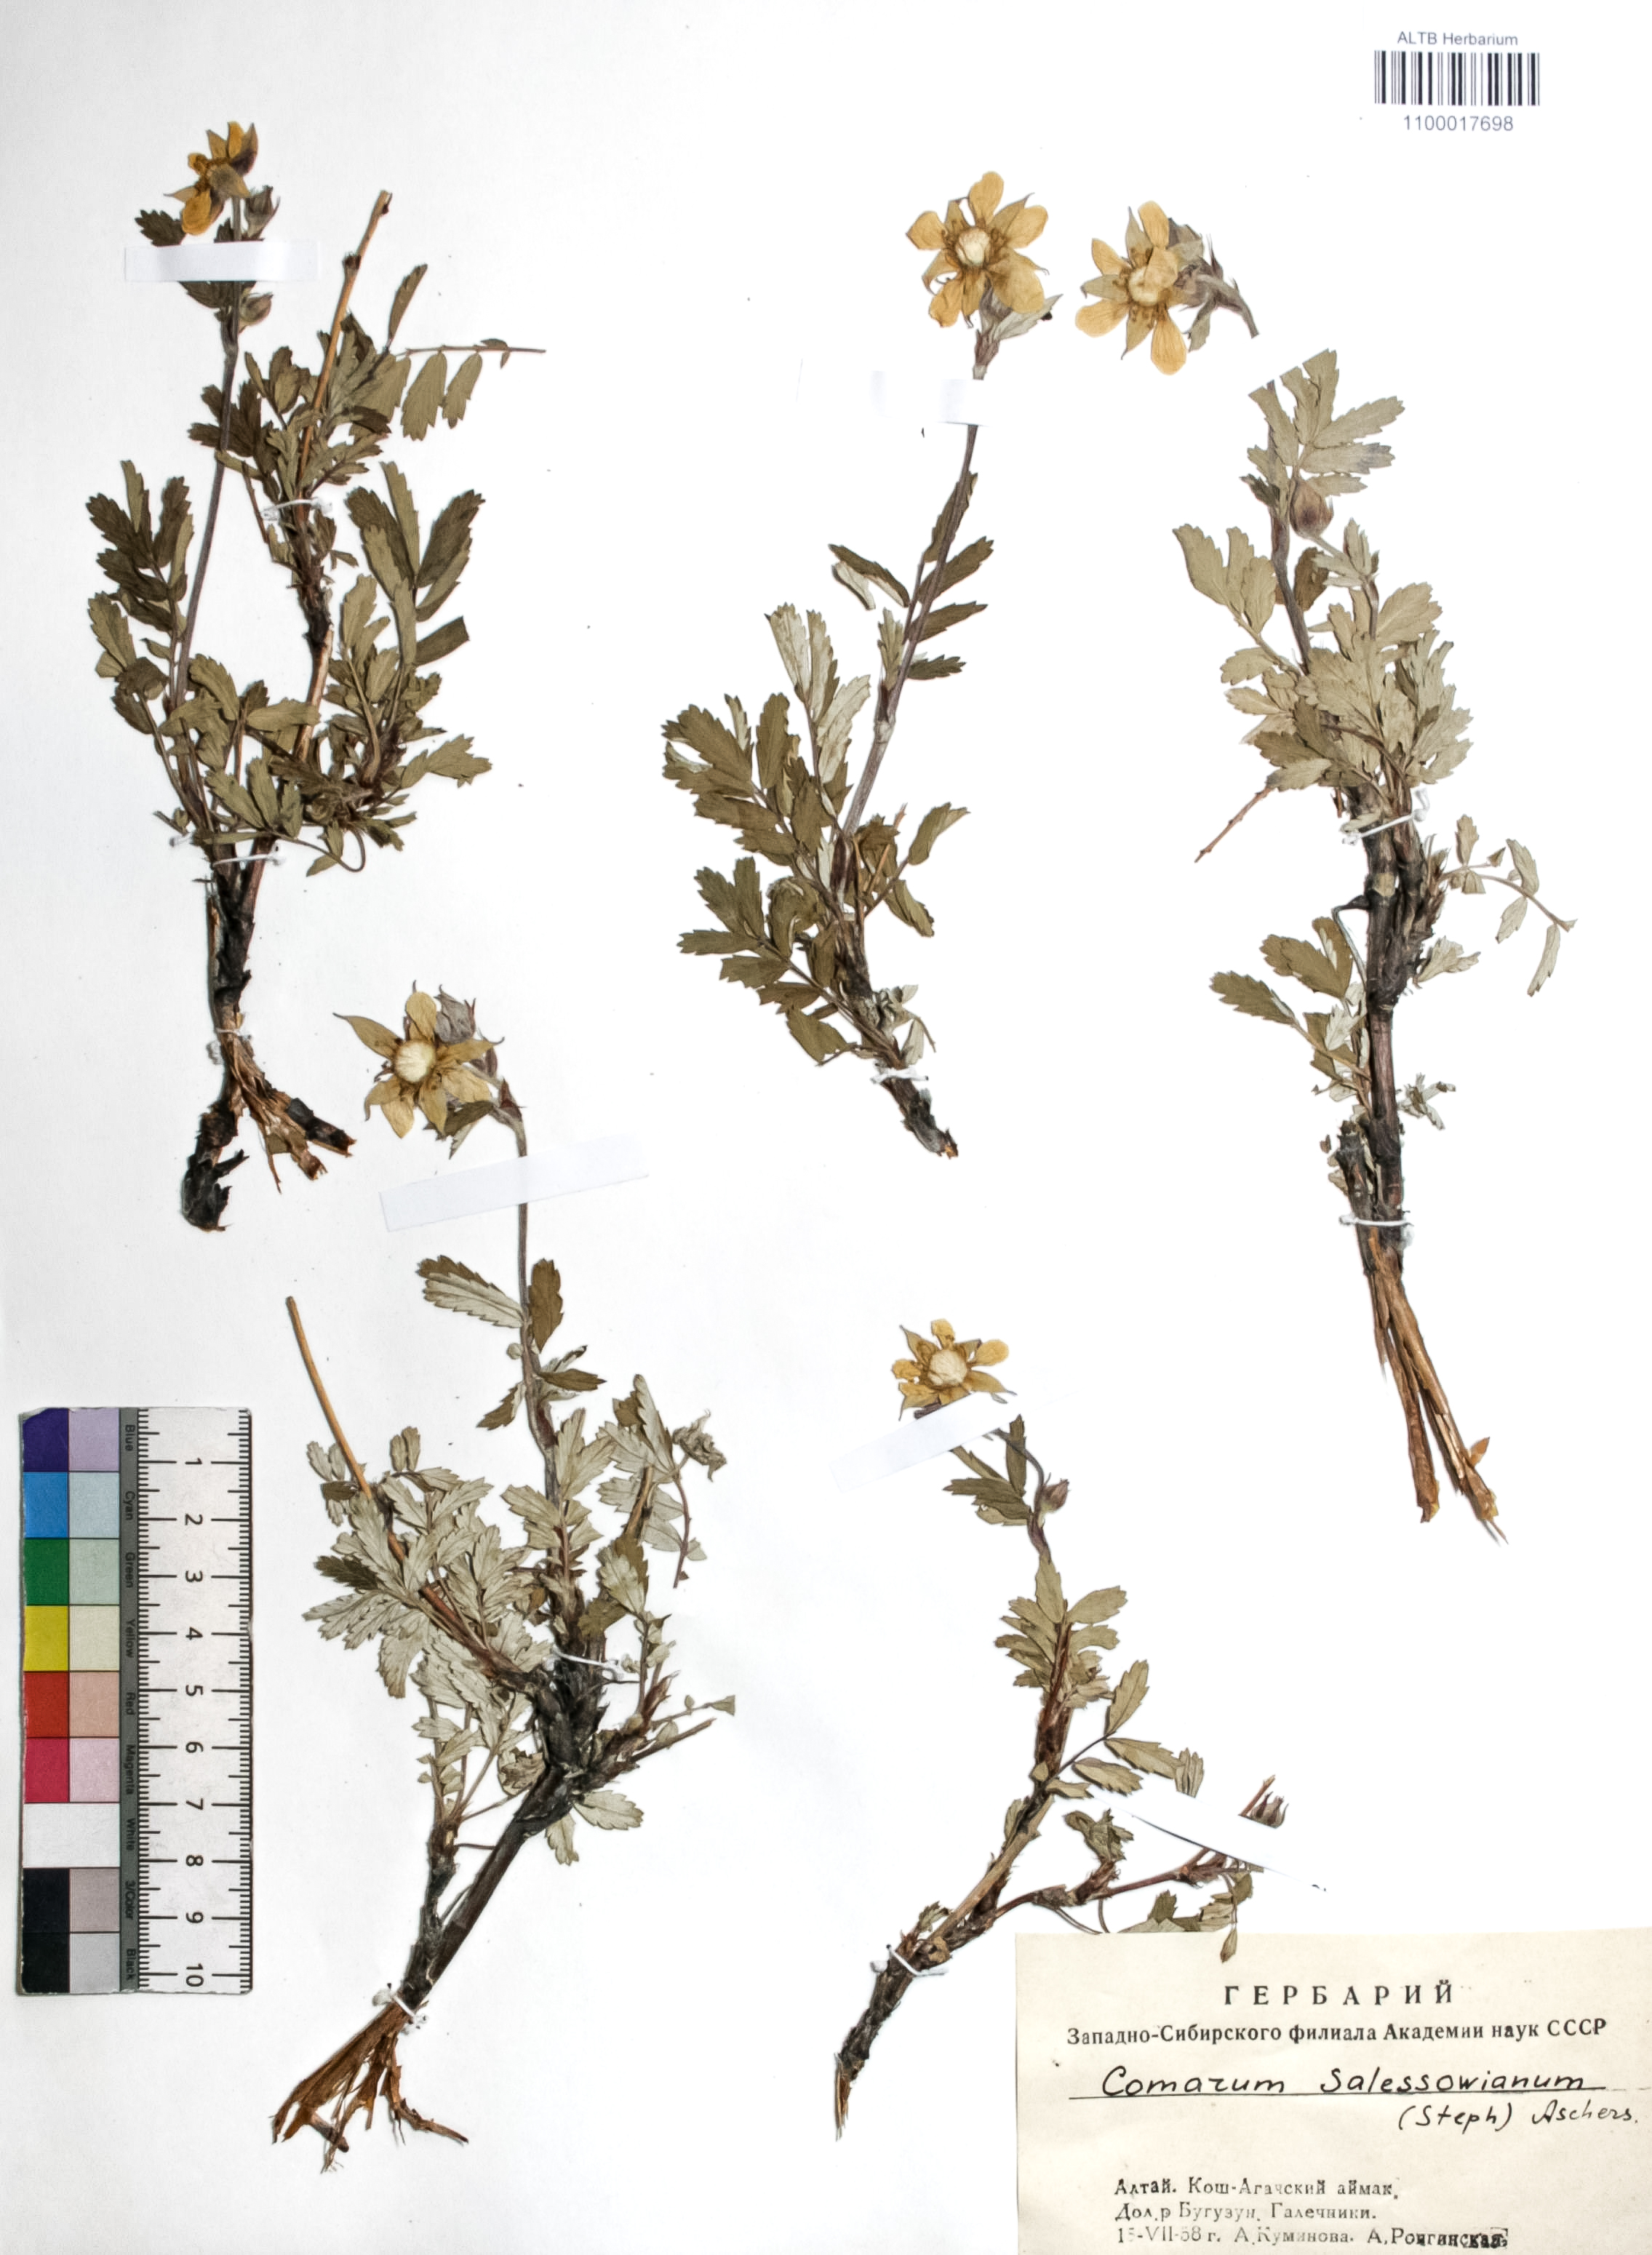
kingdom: Plantae
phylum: Tracheophyta
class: Magnoliopsida
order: Rosales
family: Rosaceae
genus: Farinopsis
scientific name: Farinopsis salesoviana
